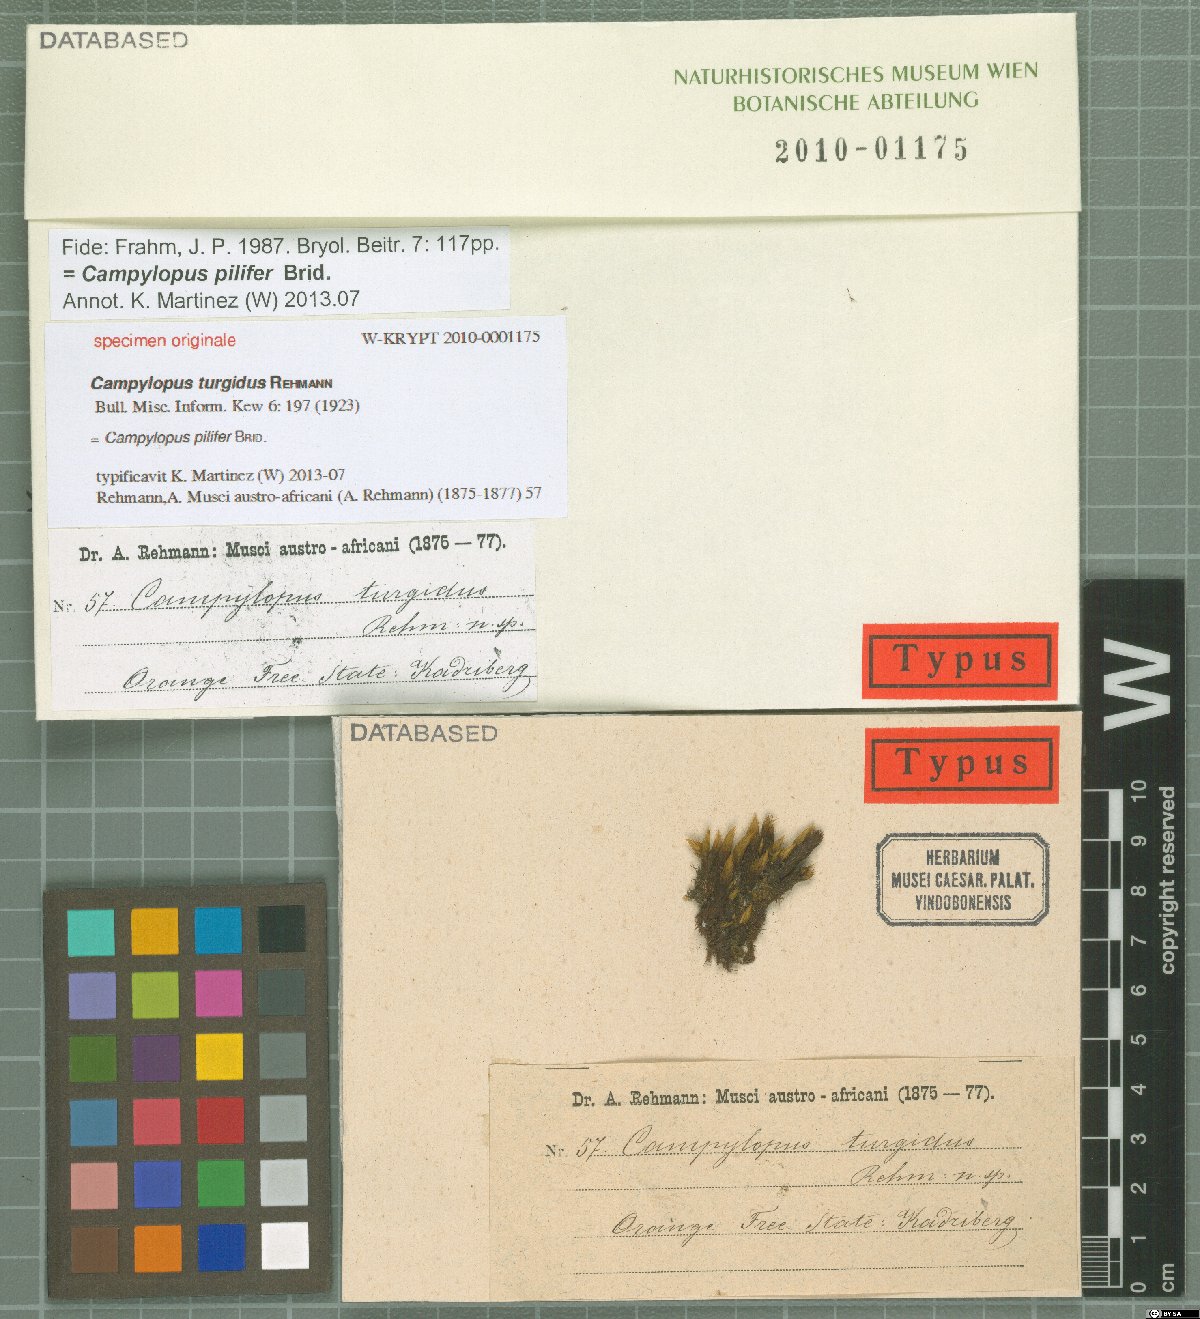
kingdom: Protozoa
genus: Campylopus
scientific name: Campylopus
